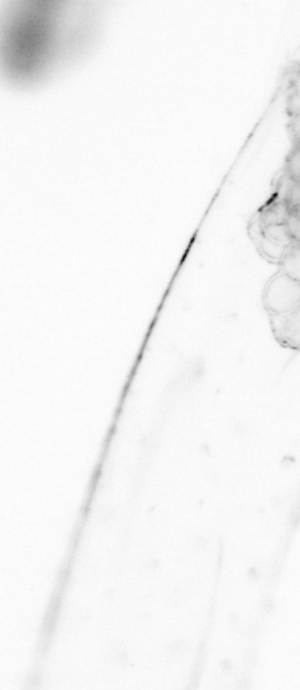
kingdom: Animalia
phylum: Chaetognatha
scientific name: Chaetognatha
